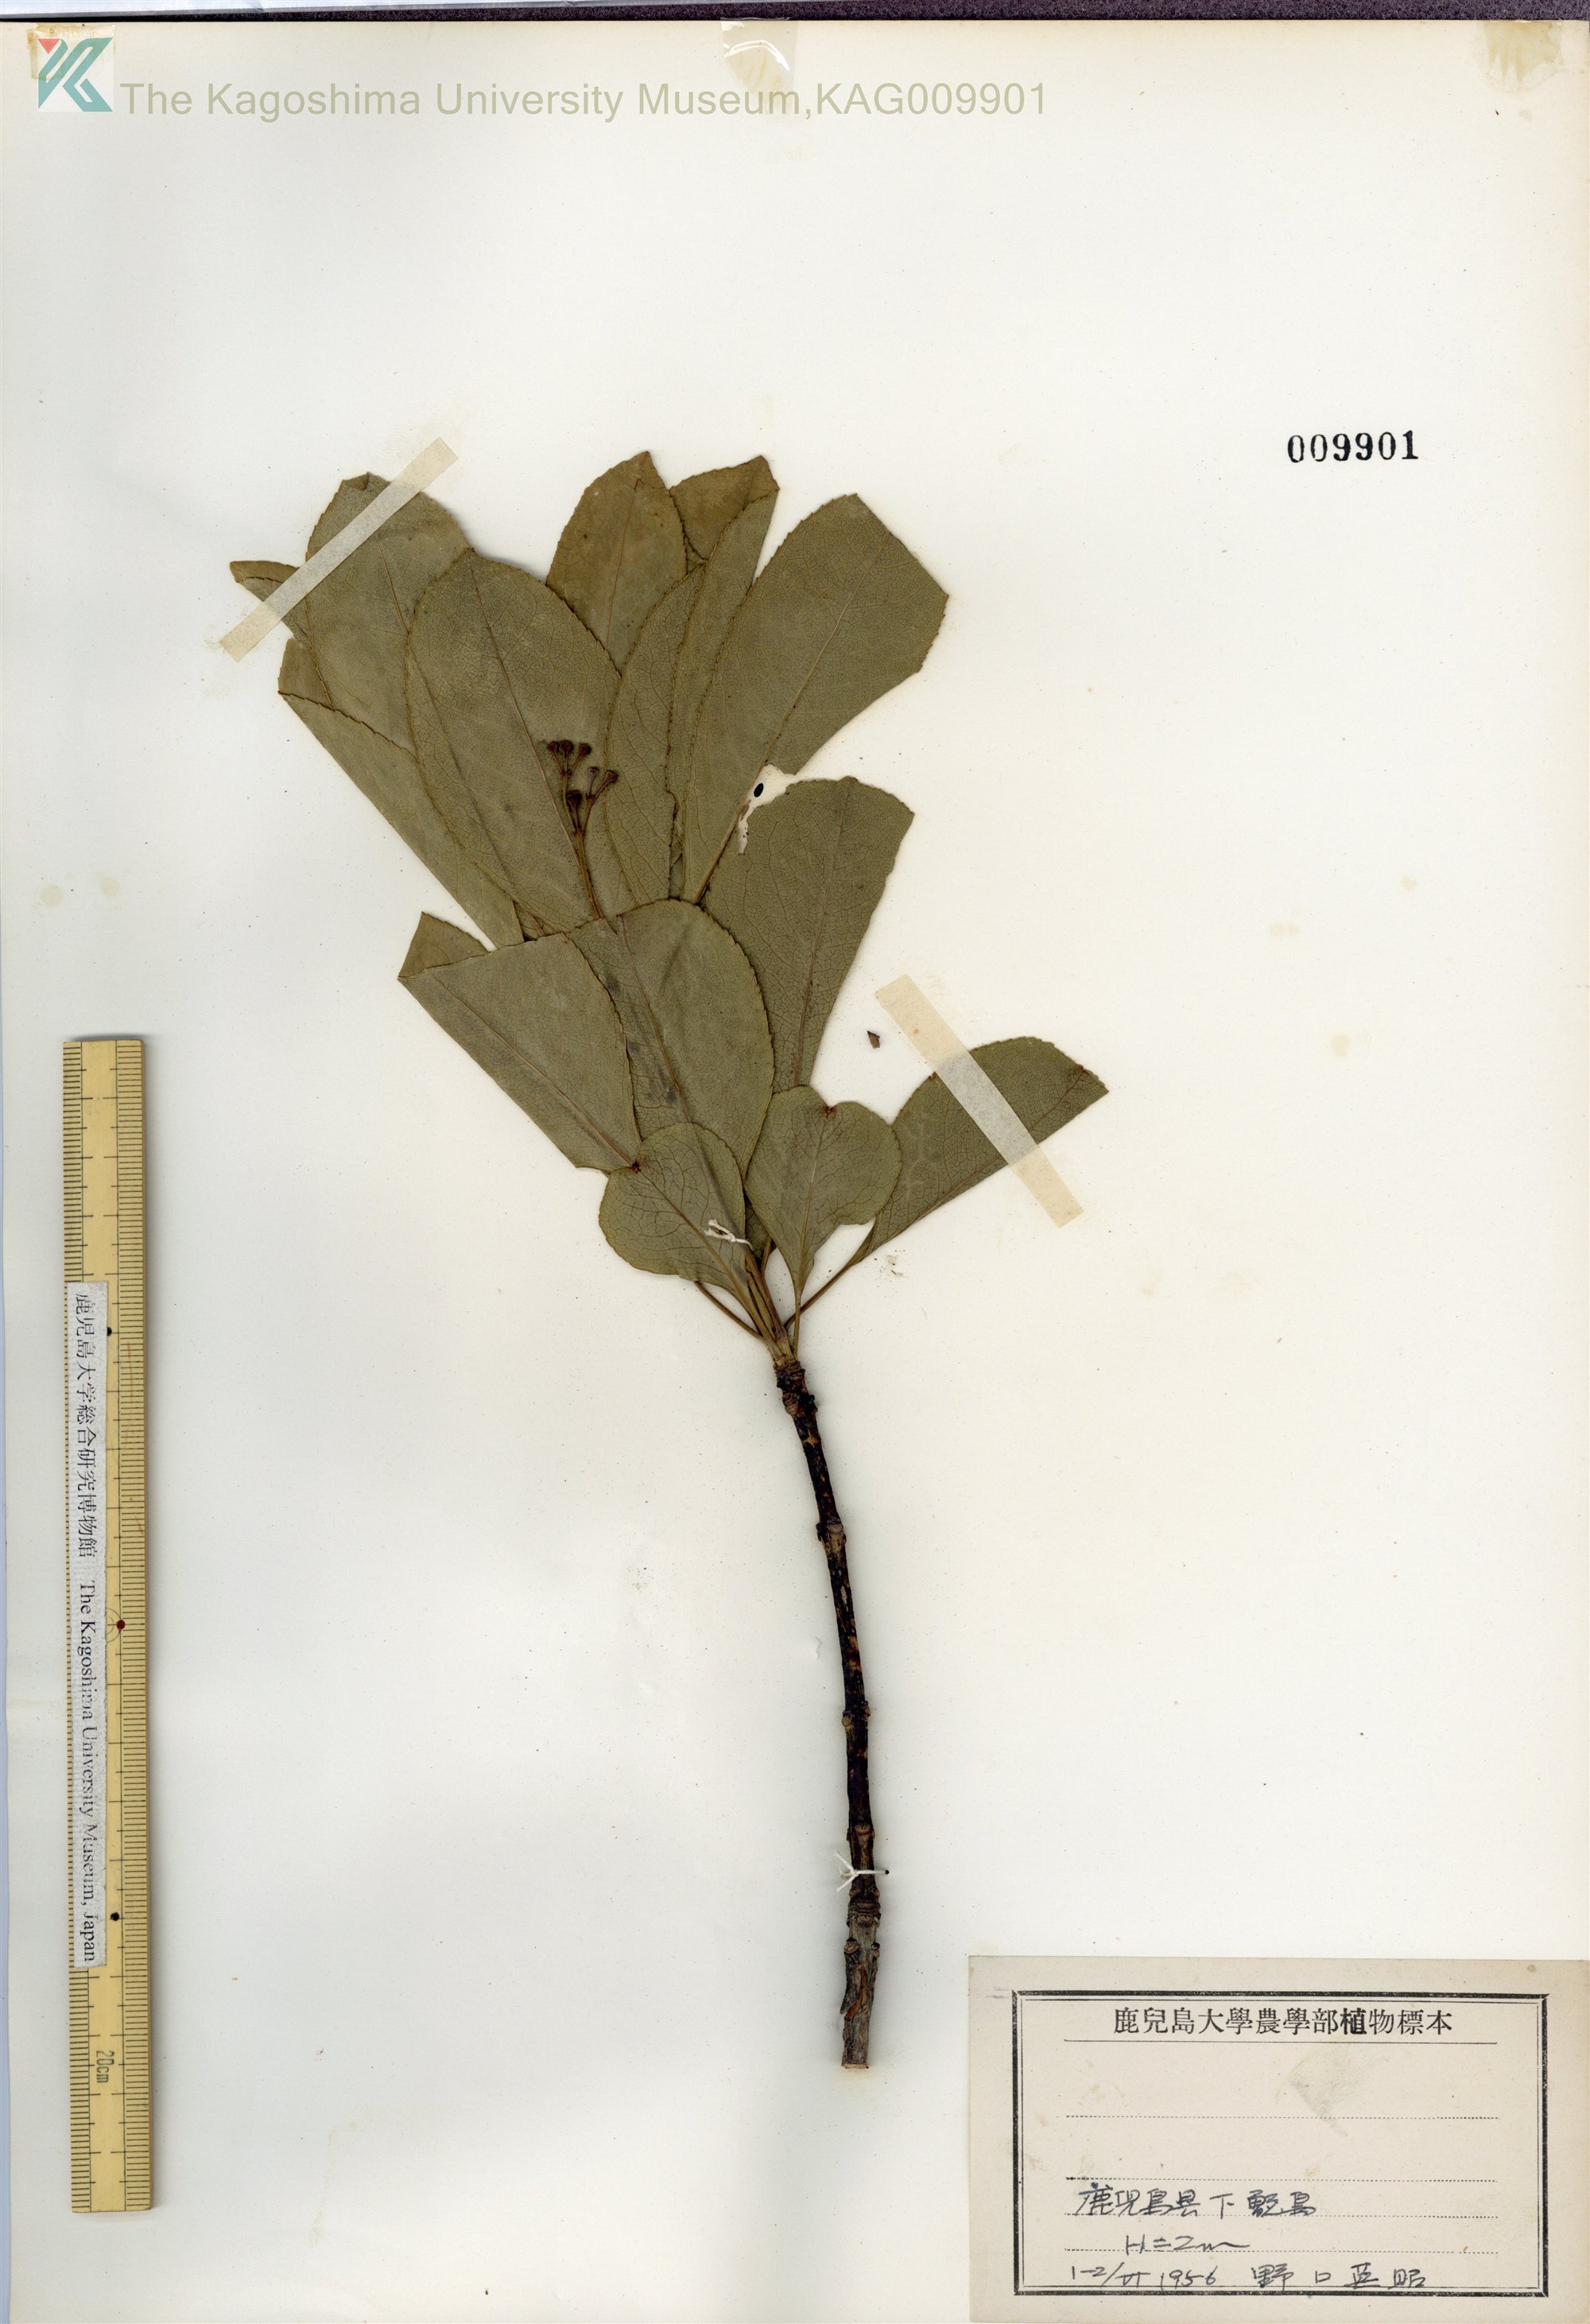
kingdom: Plantae
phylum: Tracheophyta
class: Magnoliopsida
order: Celastrales
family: Celastraceae
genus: Euonymus
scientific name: Euonymus carnosus
